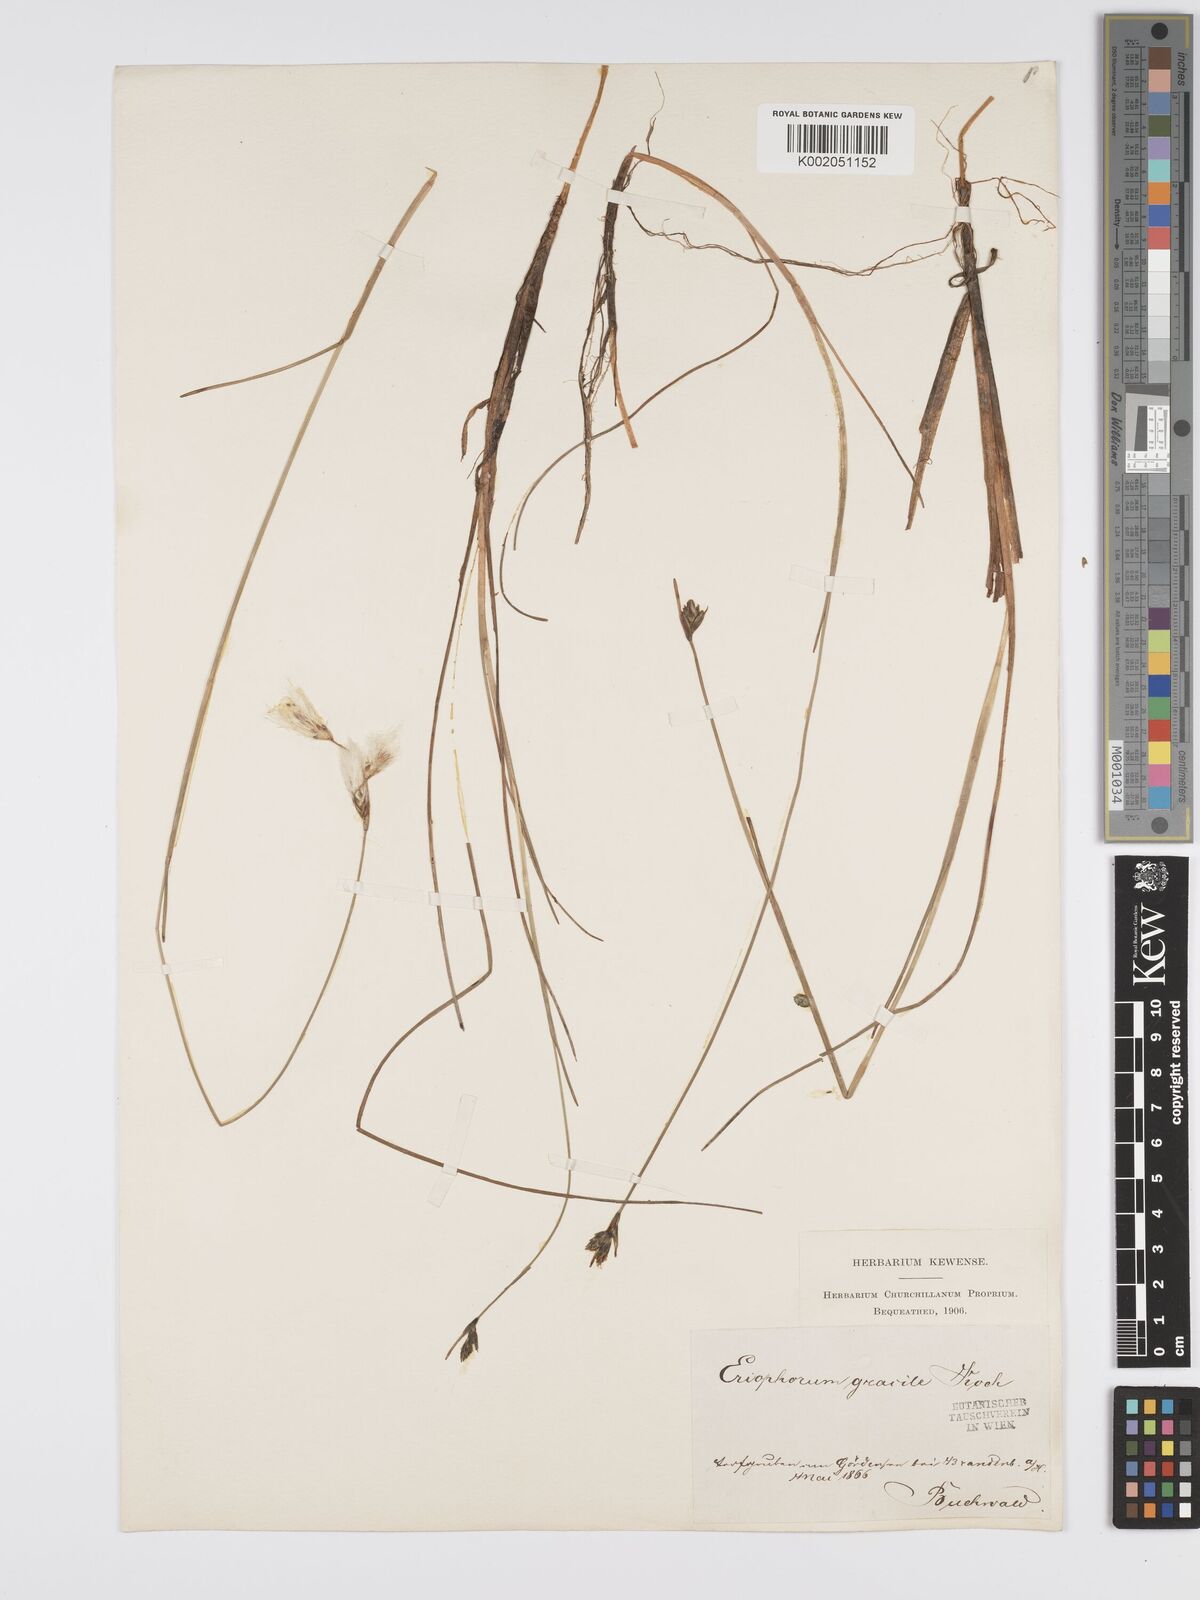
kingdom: Plantae
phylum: Tracheophyta
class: Liliopsida
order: Poales
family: Cyperaceae
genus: Eriophorum
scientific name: Eriophorum gracile
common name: Slender cottongrass
